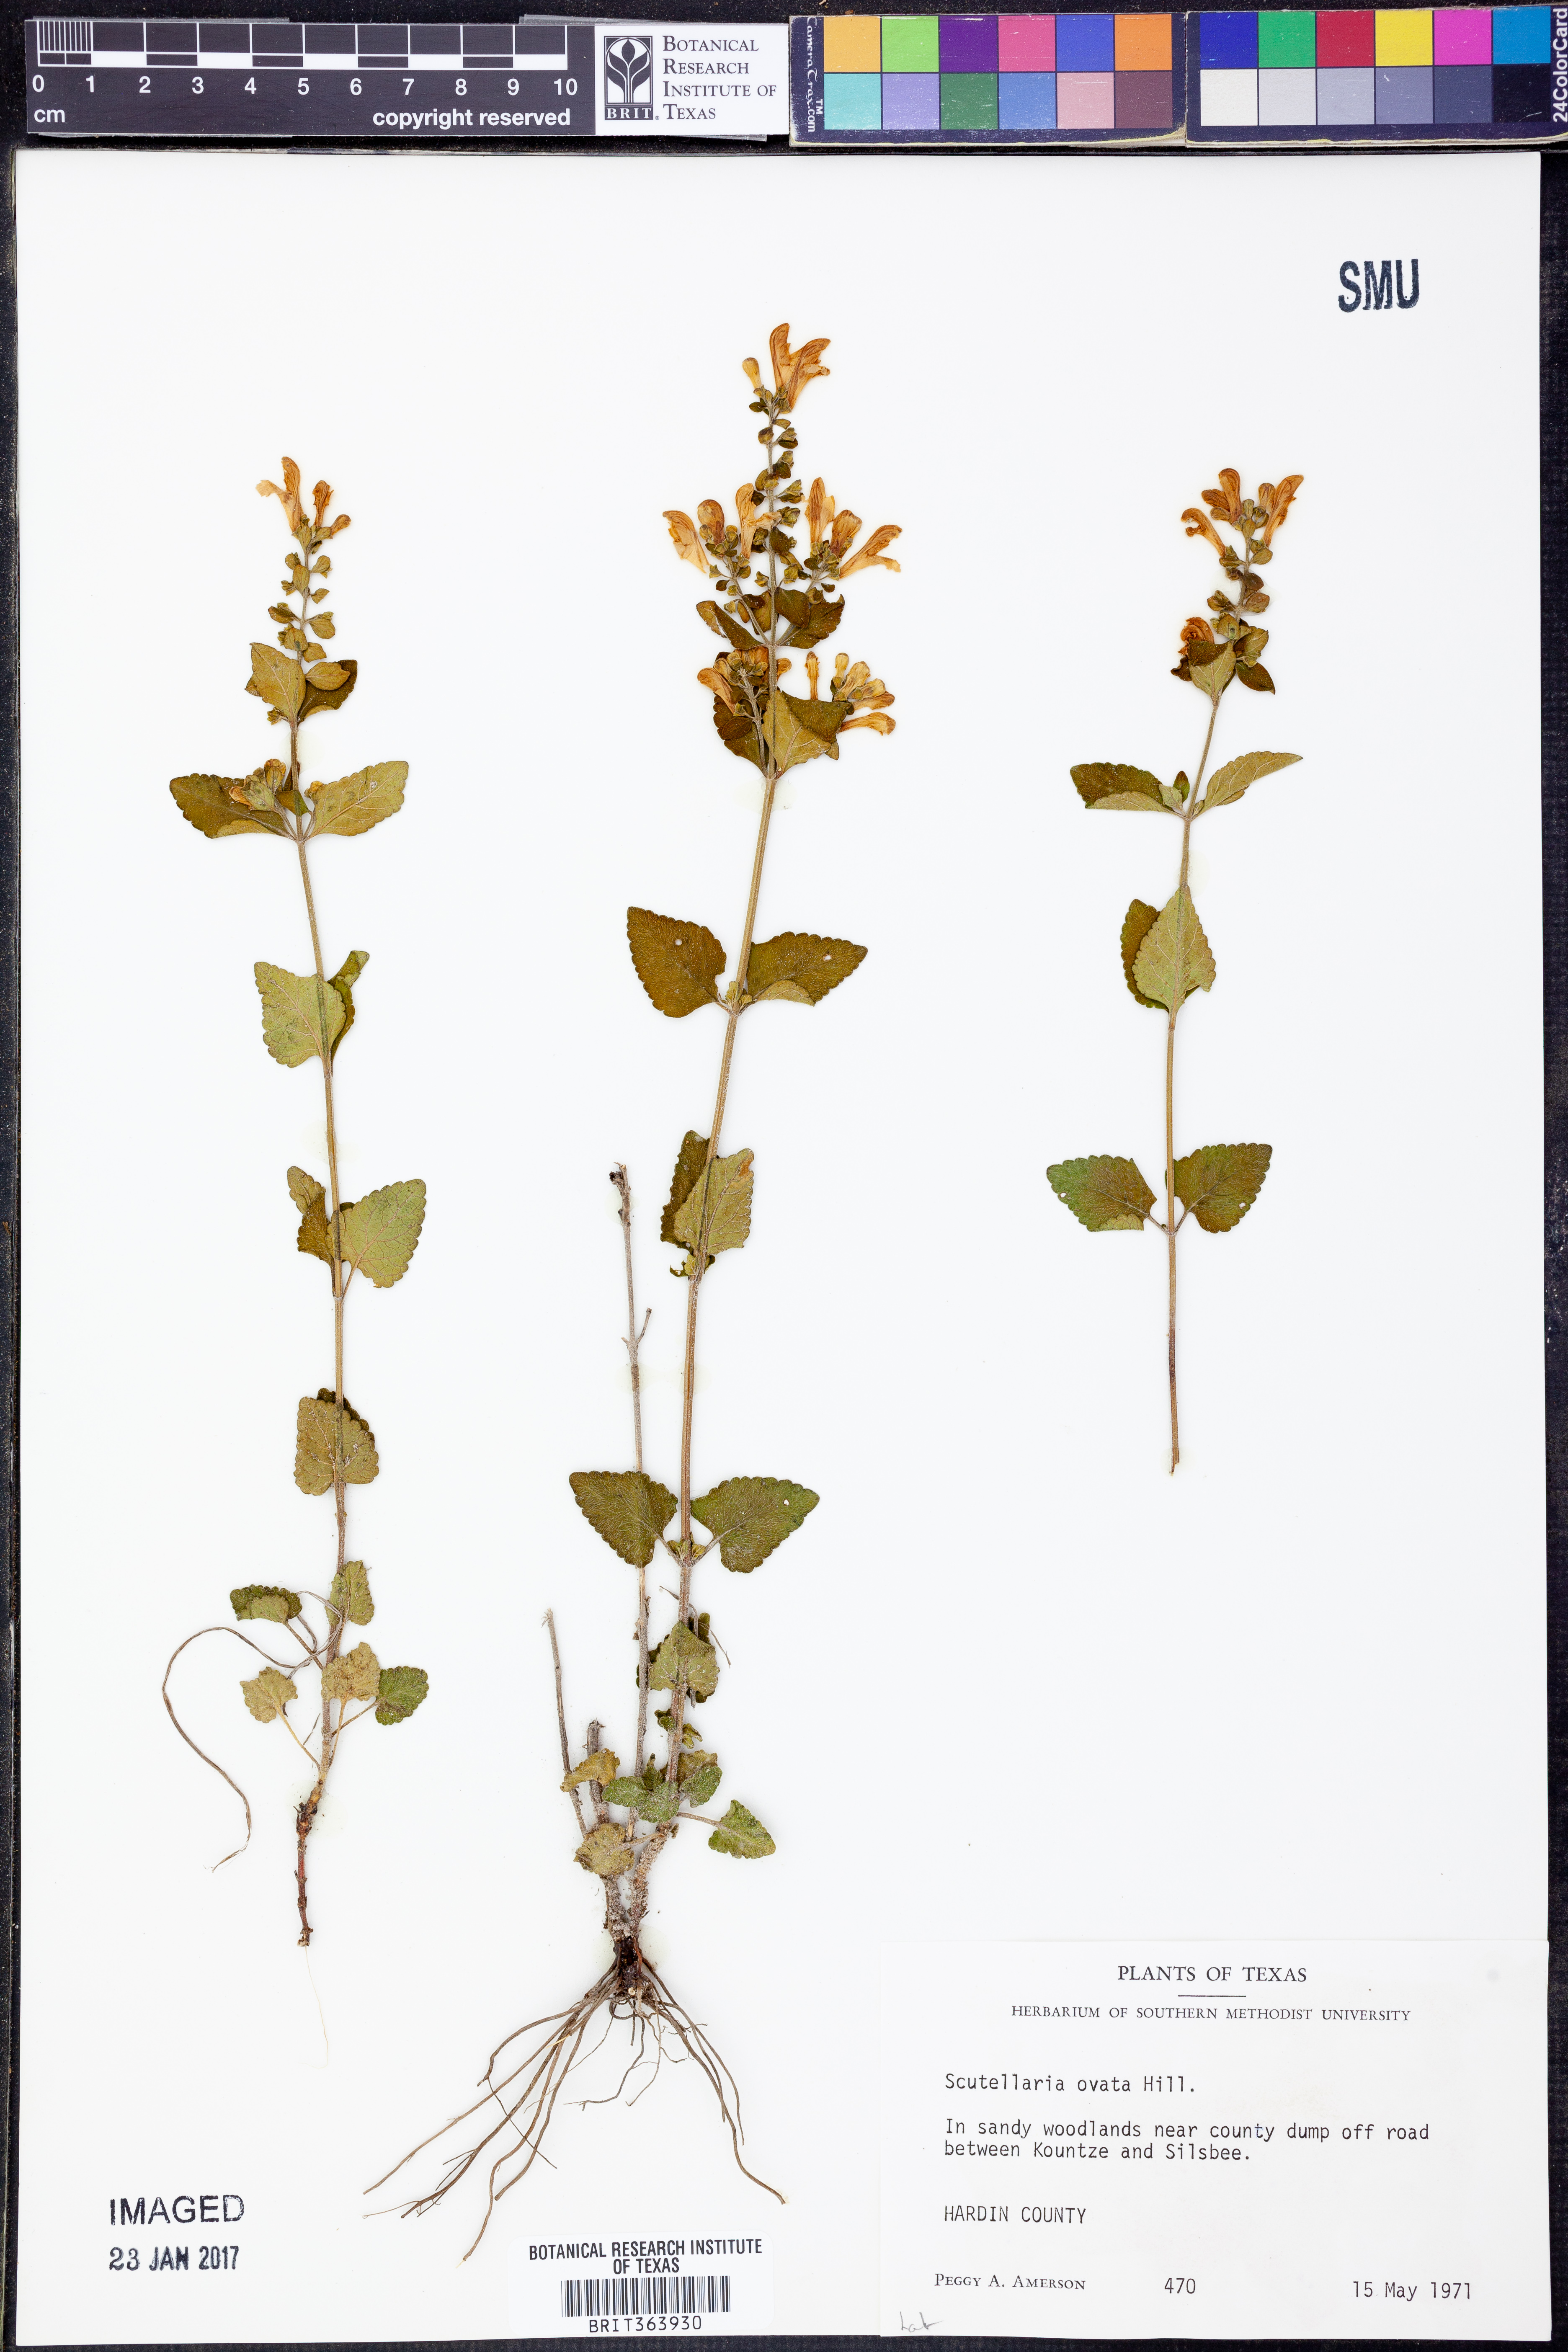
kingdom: Plantae
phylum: Tracheophyta
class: Magnoliopsida
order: Lamiales
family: Lamiaceae
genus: Scutellaria
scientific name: Scutellaria ovata
